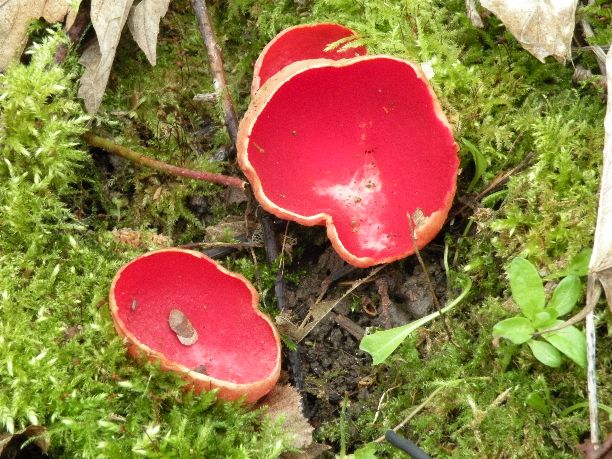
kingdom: Fungi
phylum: Ascomycota
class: Pezizomycetes
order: Pezizales
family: Sarcoscyphaceae
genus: Sarcoscypha
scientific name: Sarcoscypha austriaca
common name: krølhåret pragtbæger
